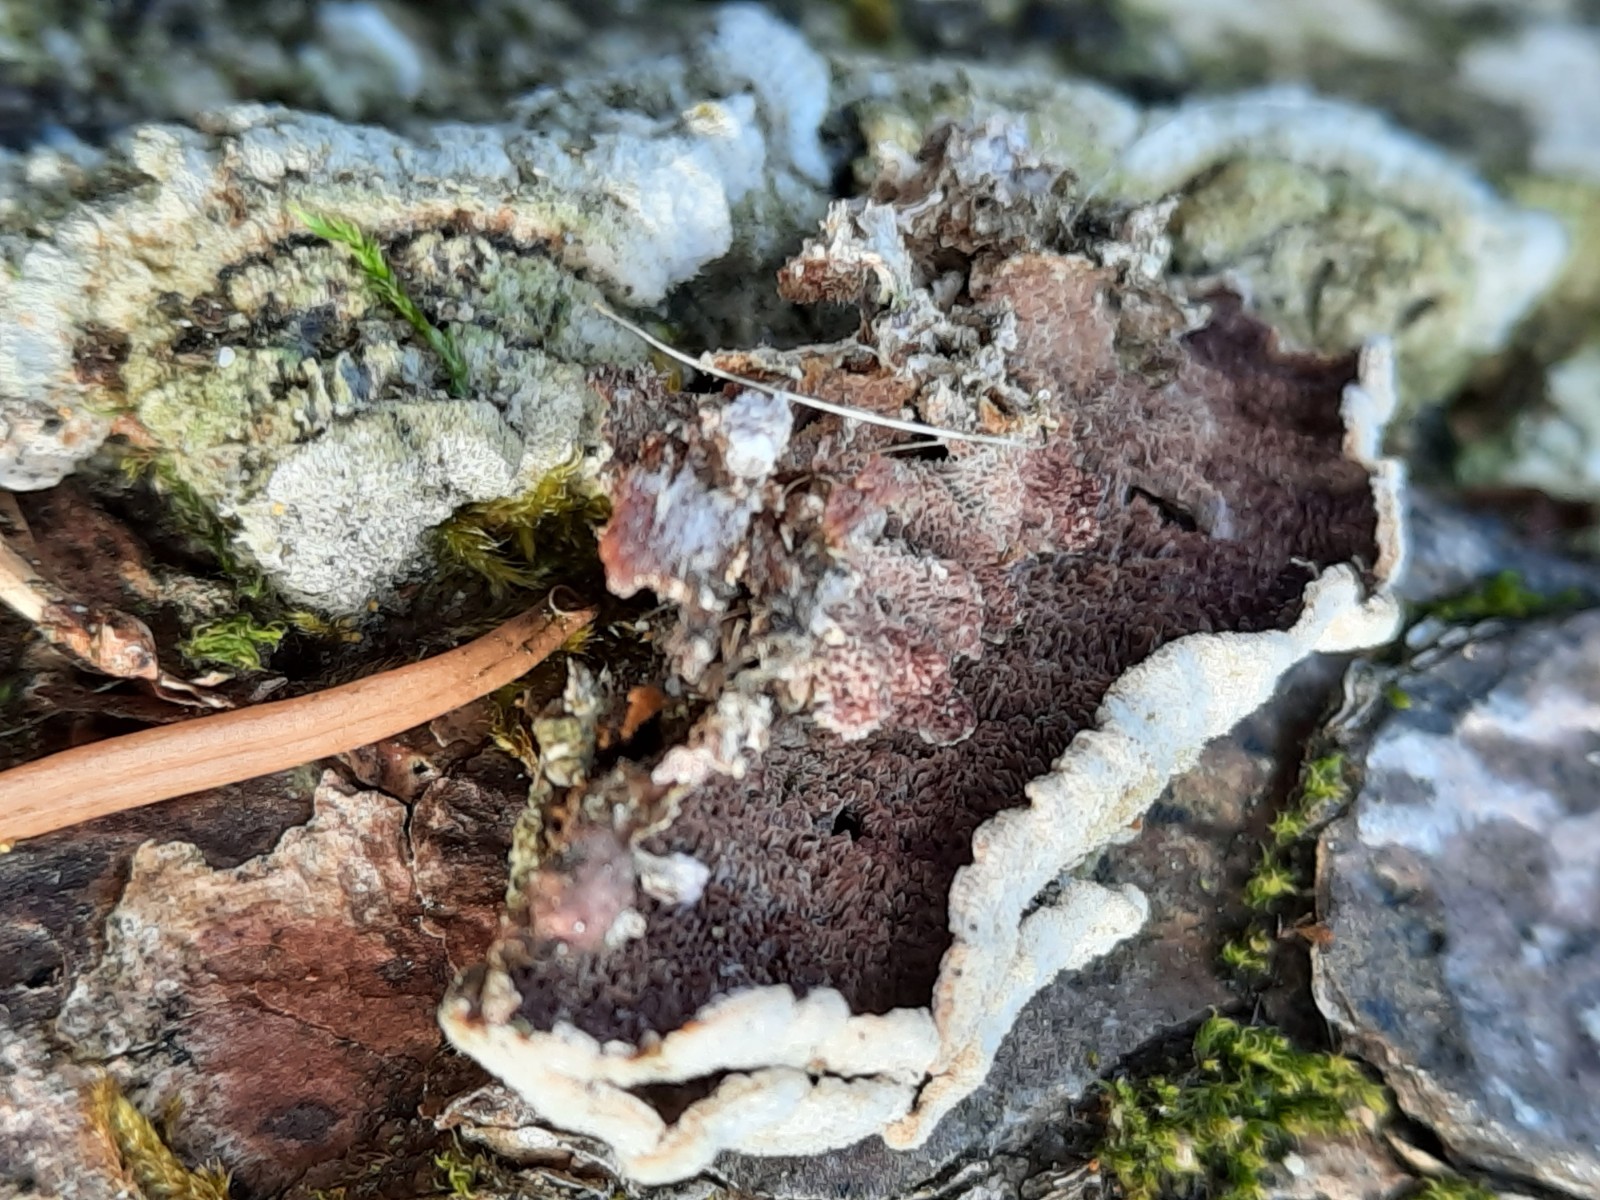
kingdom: Fungi
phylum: Basidiomycota
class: Agaricomycetes
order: Hymenochaetales
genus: Trichaptum
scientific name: Trichaptum fuscoviolaceum
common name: tandet violporesvamp
